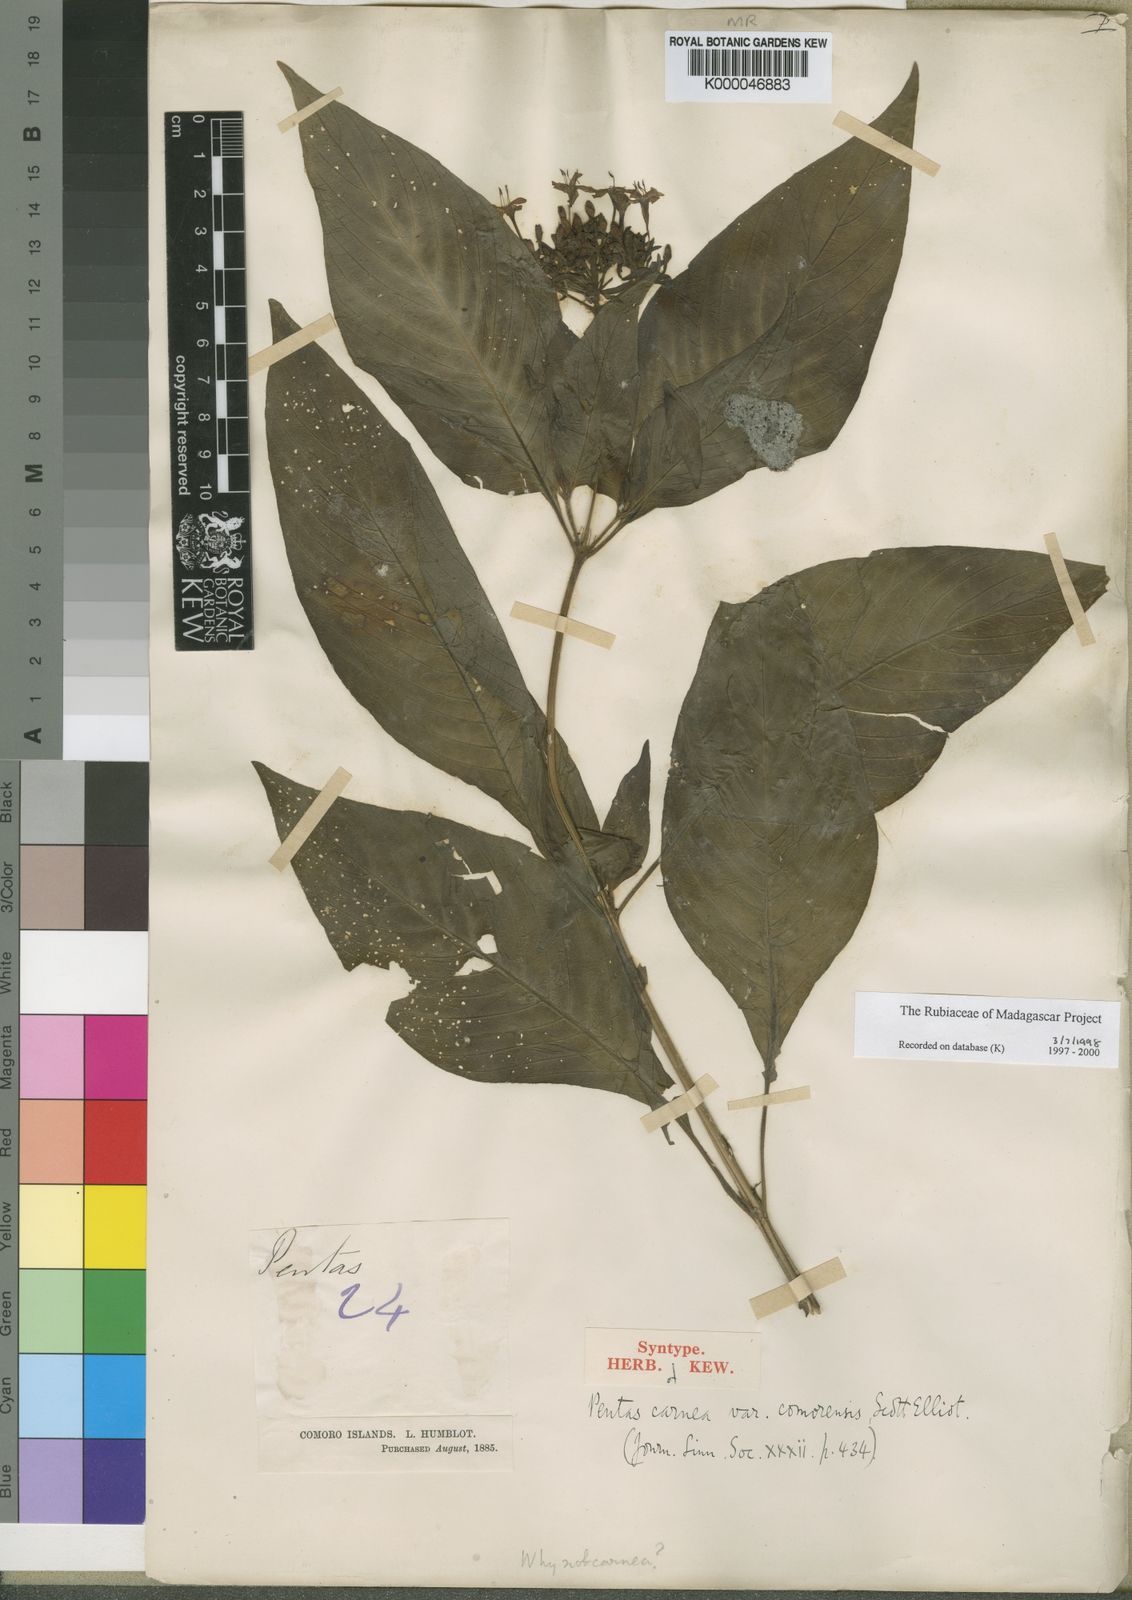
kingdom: Plantae
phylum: Tracheophyta
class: Magnoliopsida
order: Gentianales
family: Rubiaceae
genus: Pentas
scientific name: Pentas lanceolata
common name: Egyptian starcluster
